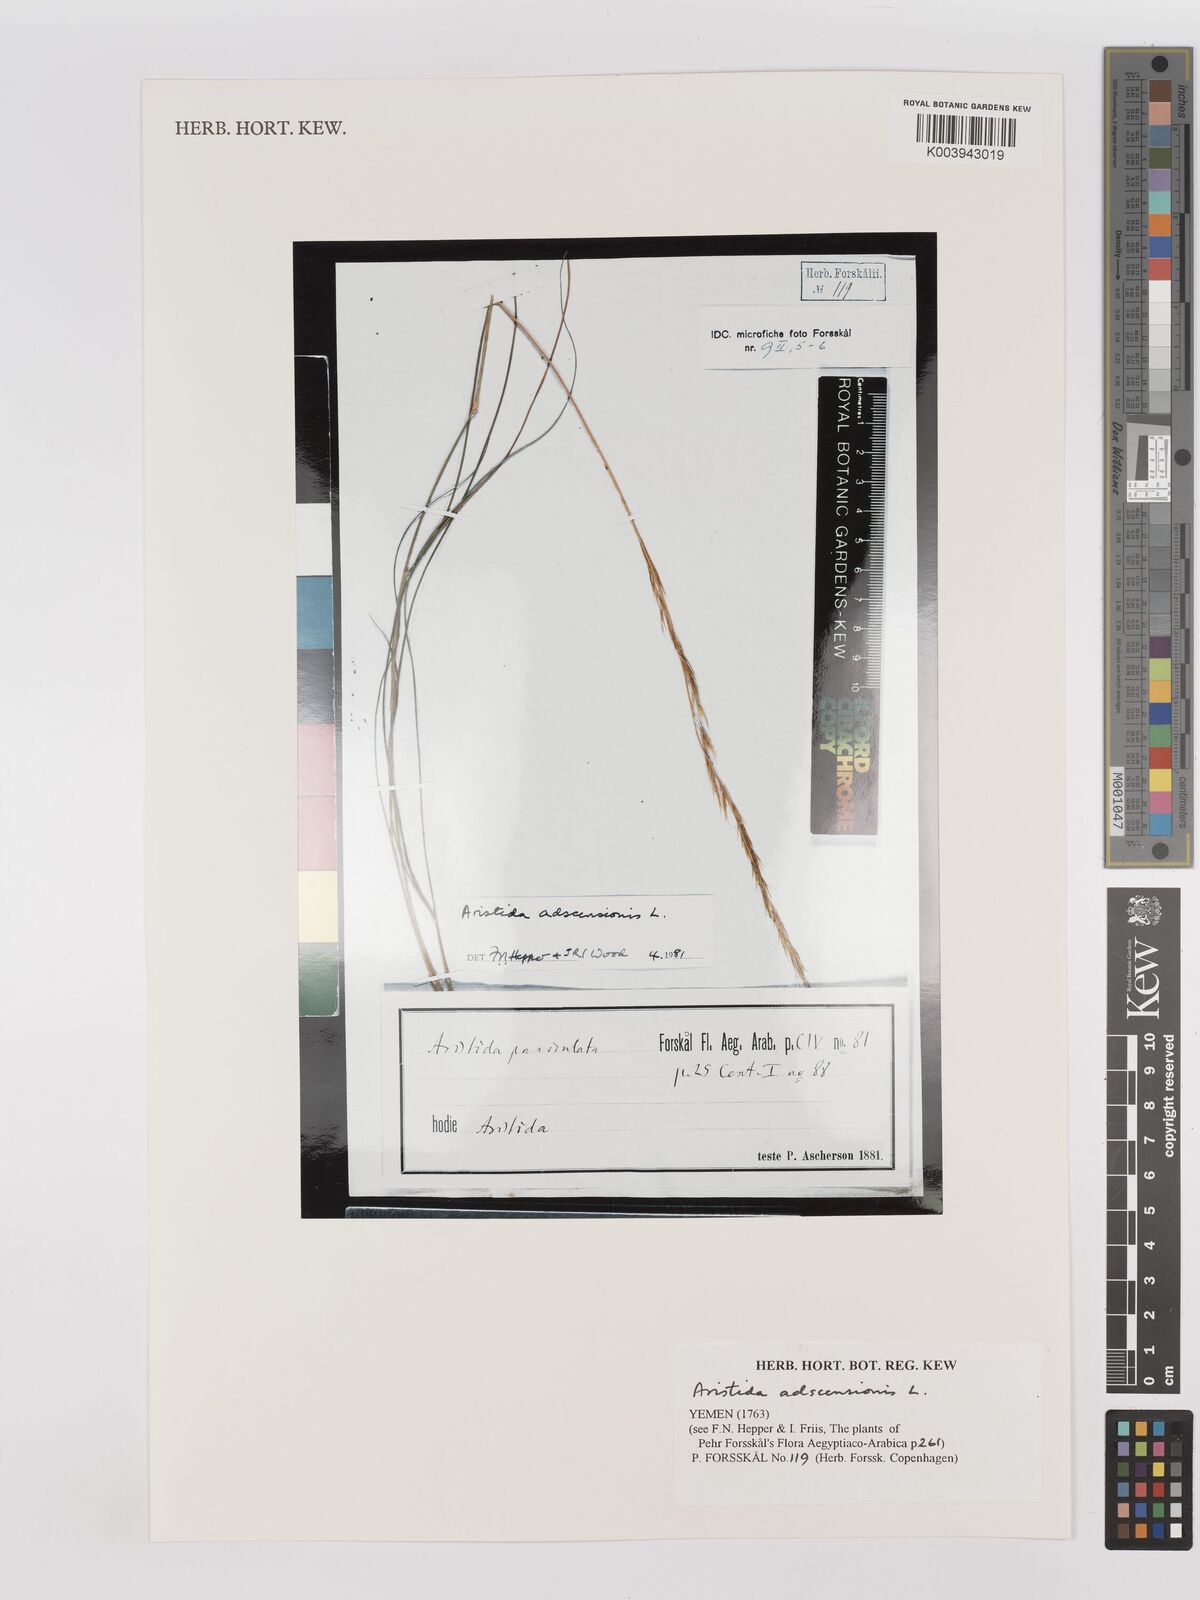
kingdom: Plantae
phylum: Tracheophyta
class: Liliopsida
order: Poales
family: Poaceae
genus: Aristida
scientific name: Aristida adscensionis
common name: Sixweeks threeawn
